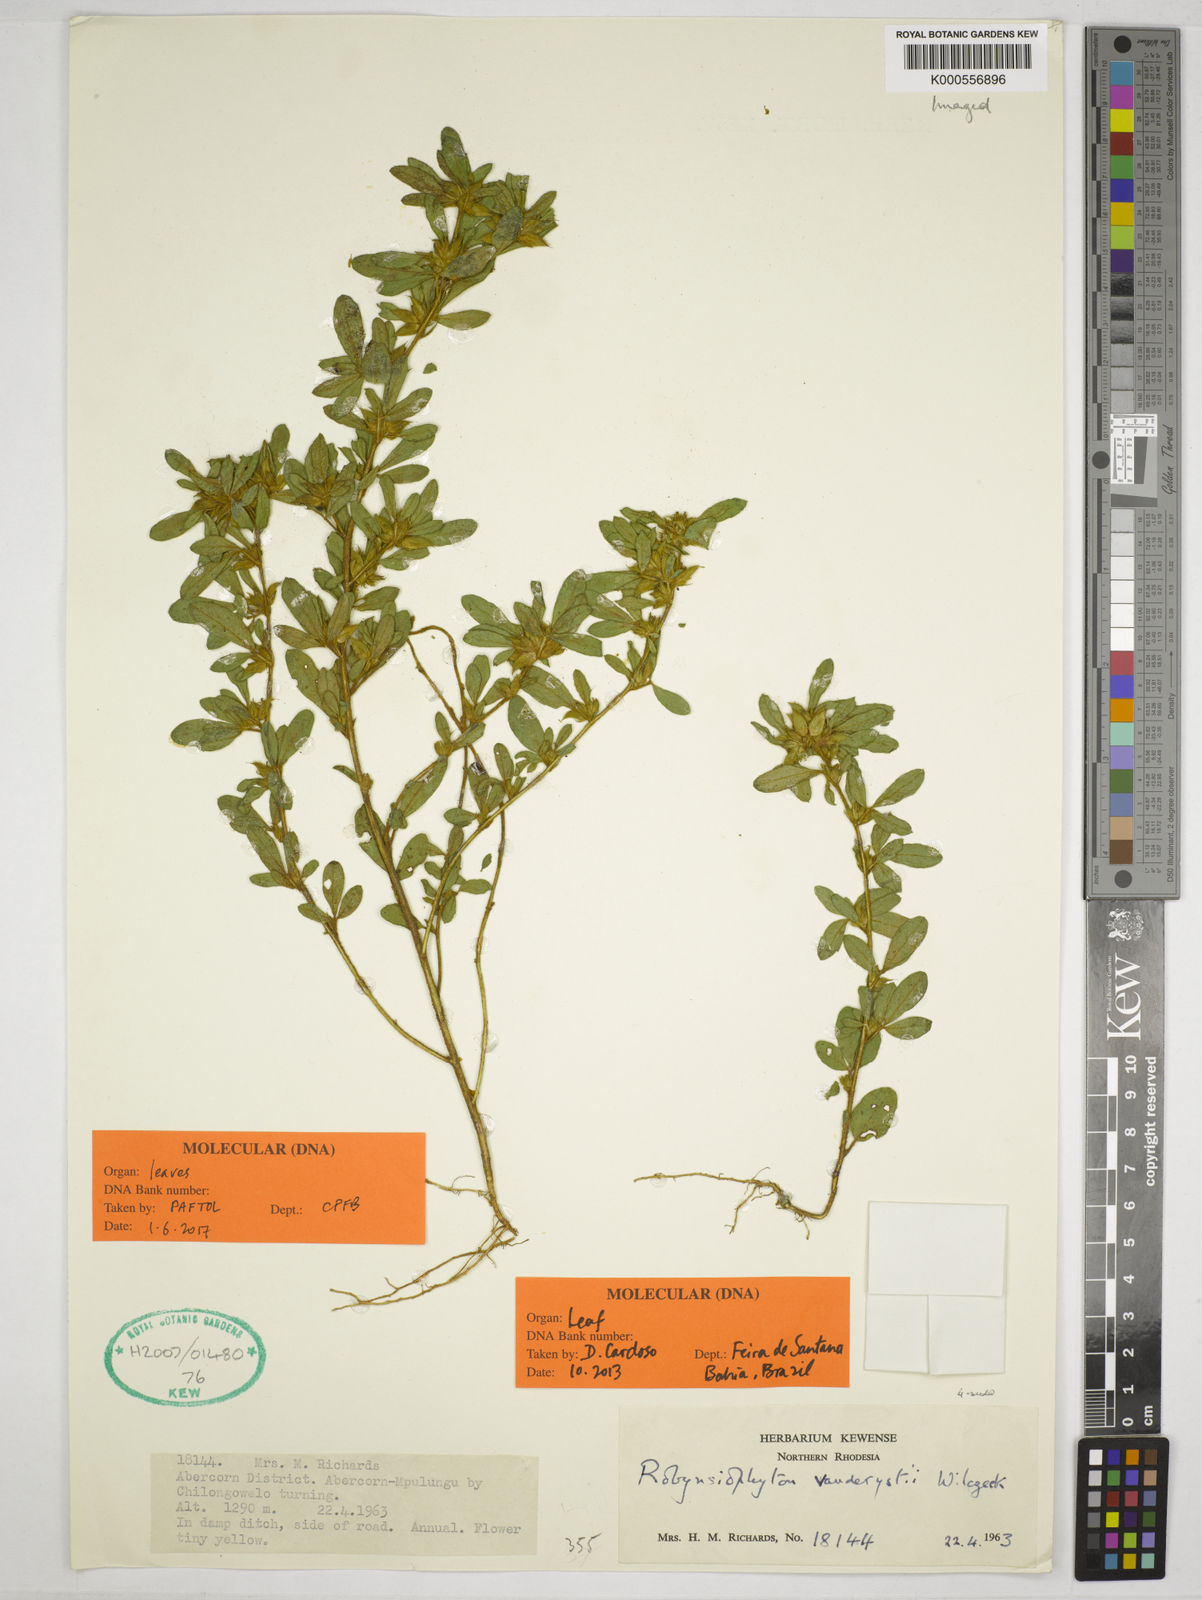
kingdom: Plantae
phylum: Tracheophyta
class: Magnoliopsida
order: Fabales
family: Fabaceae
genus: Robynsiophyton
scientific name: Robynsiophyton vanderystii
